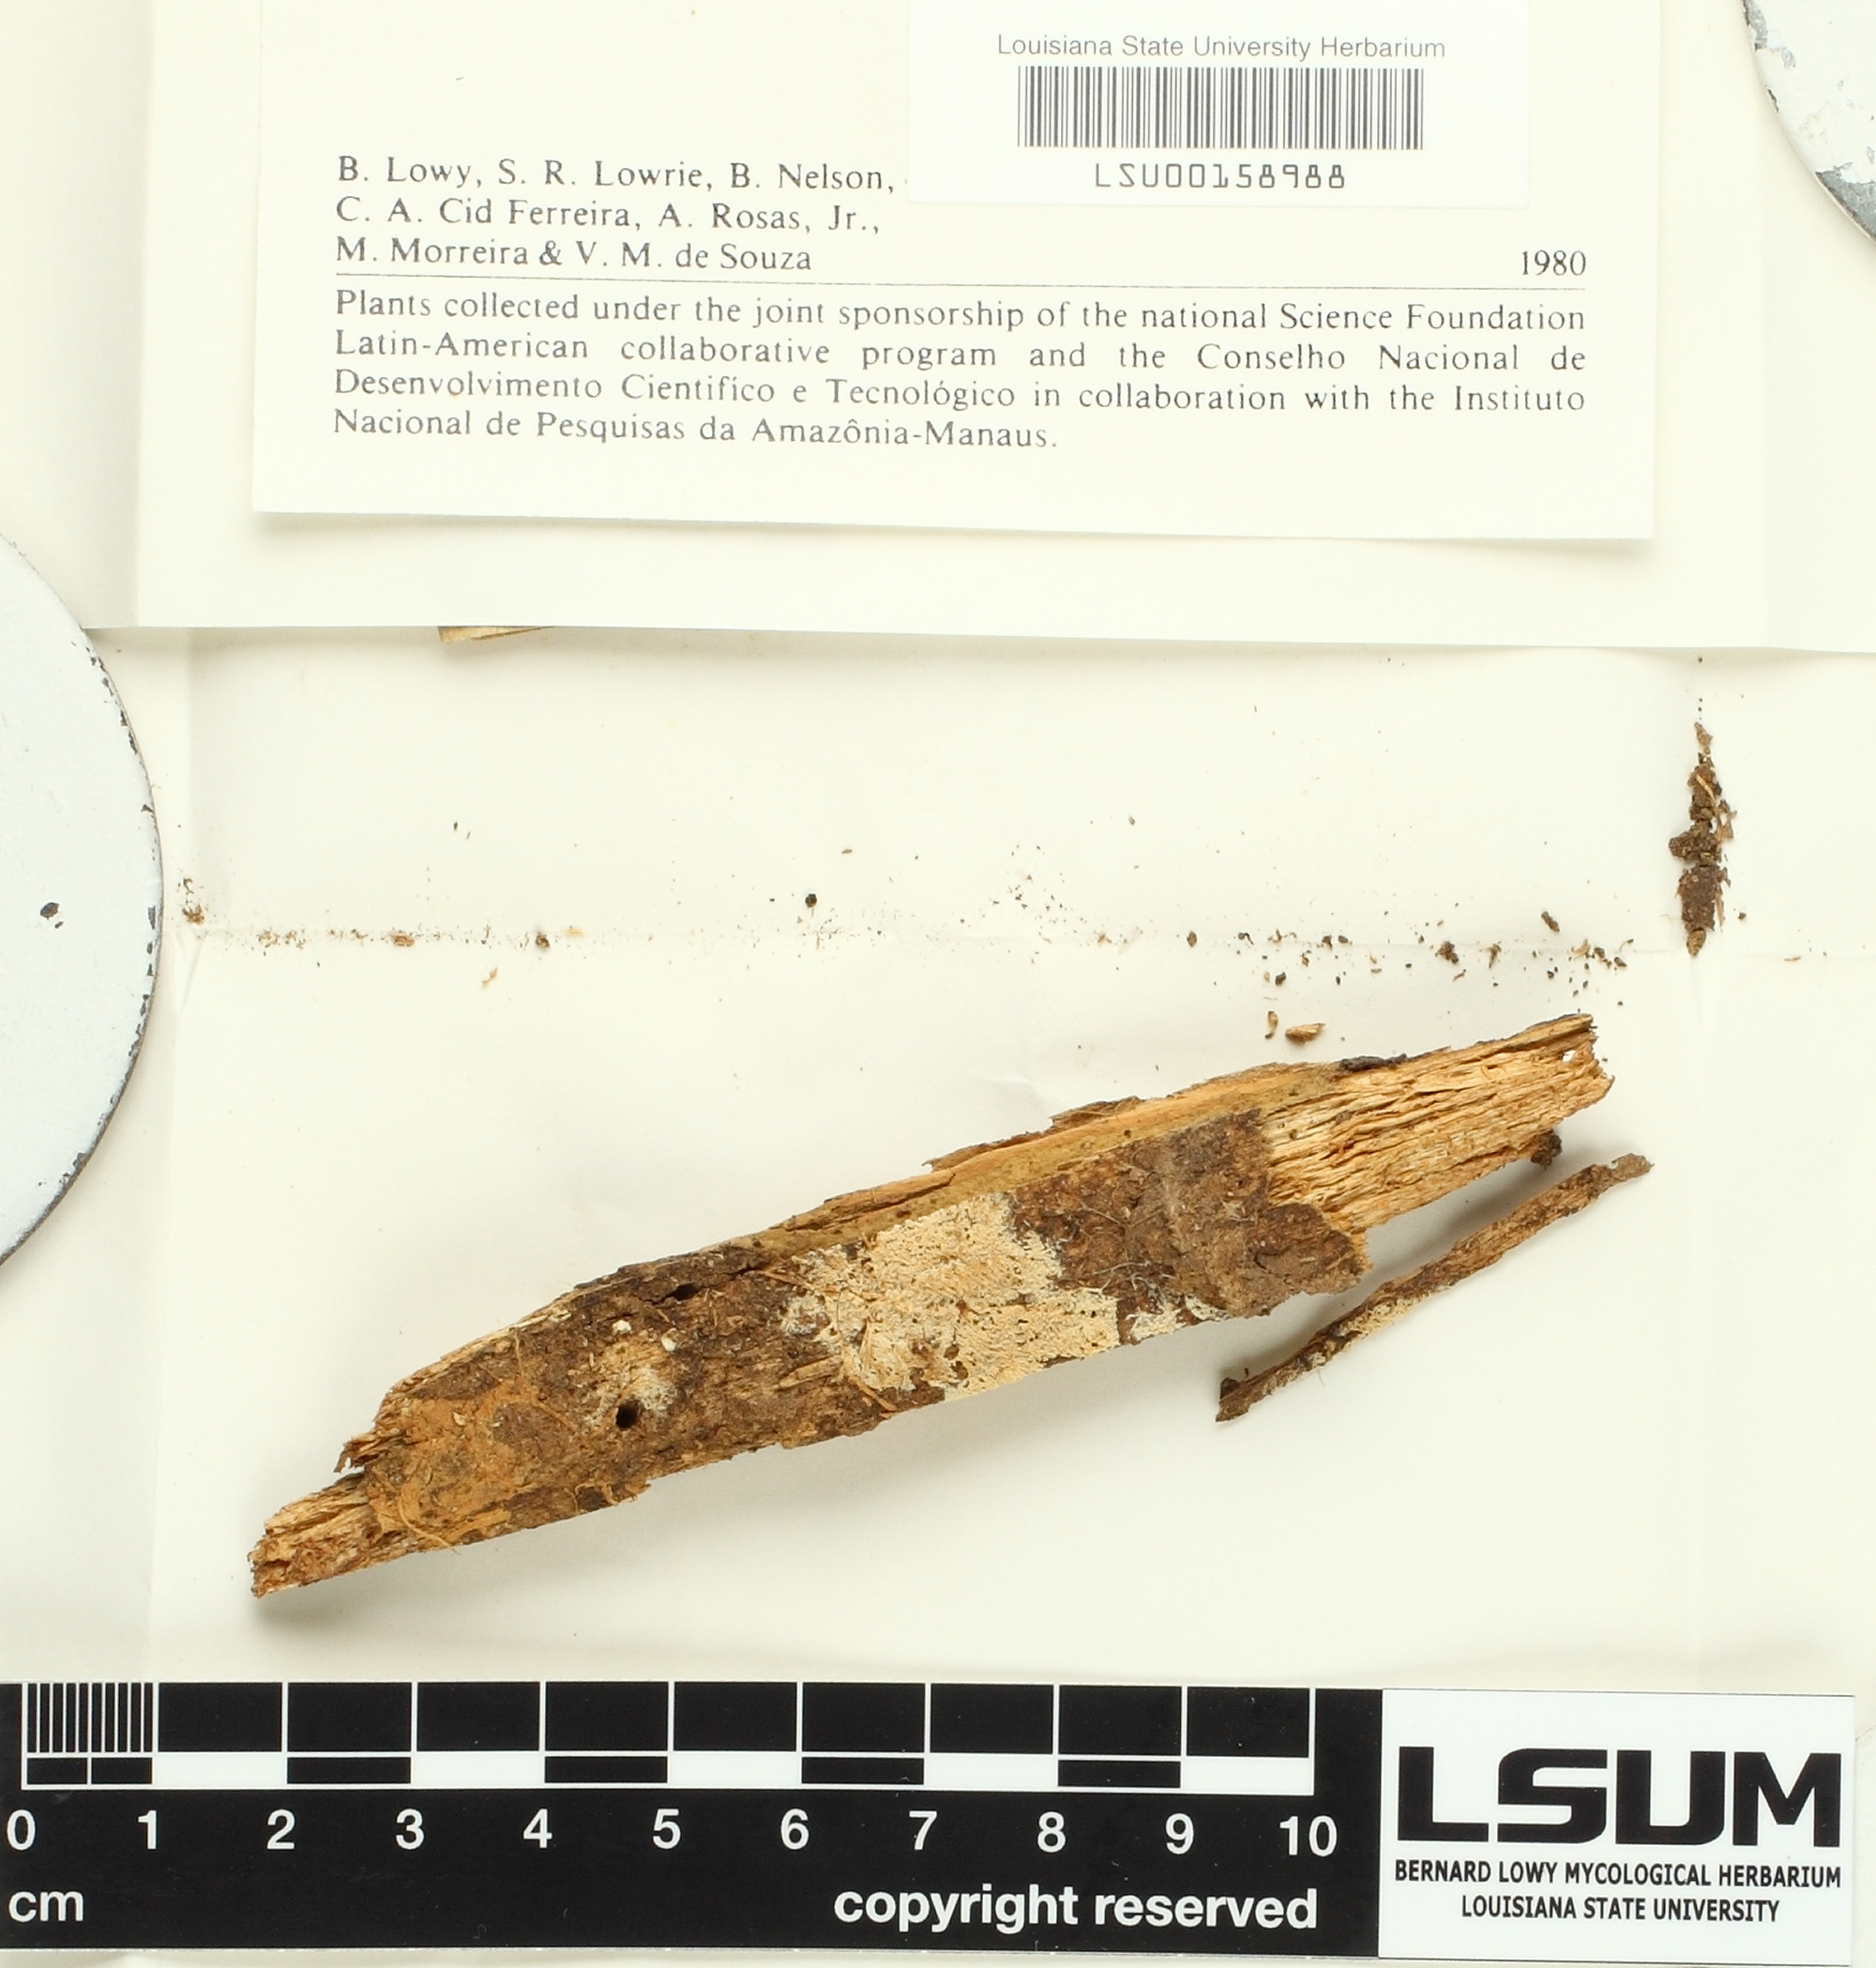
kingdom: Fungi
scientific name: Fungi
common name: Fungi
